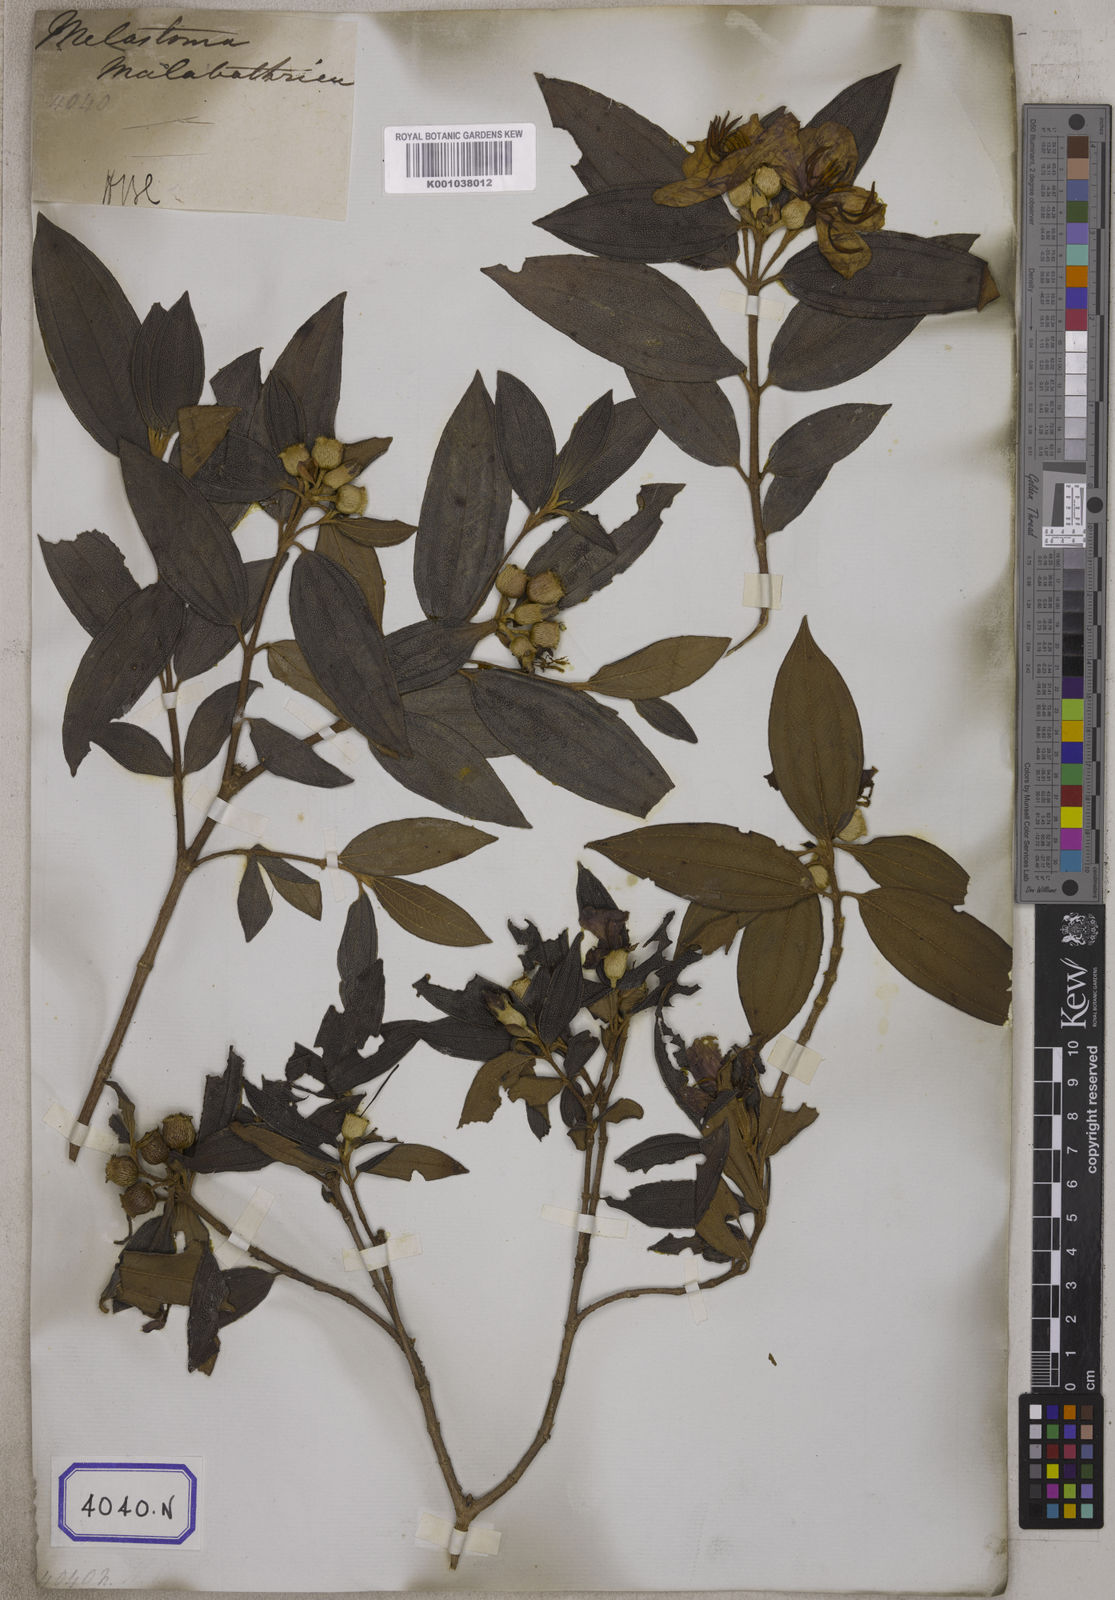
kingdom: Plantae
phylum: Tracheophyta
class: Magnoliopsida
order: Myrtales
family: Melastomataceae
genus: Melastoma
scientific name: Melastoma malabathricum
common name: Indian-rhododendron
